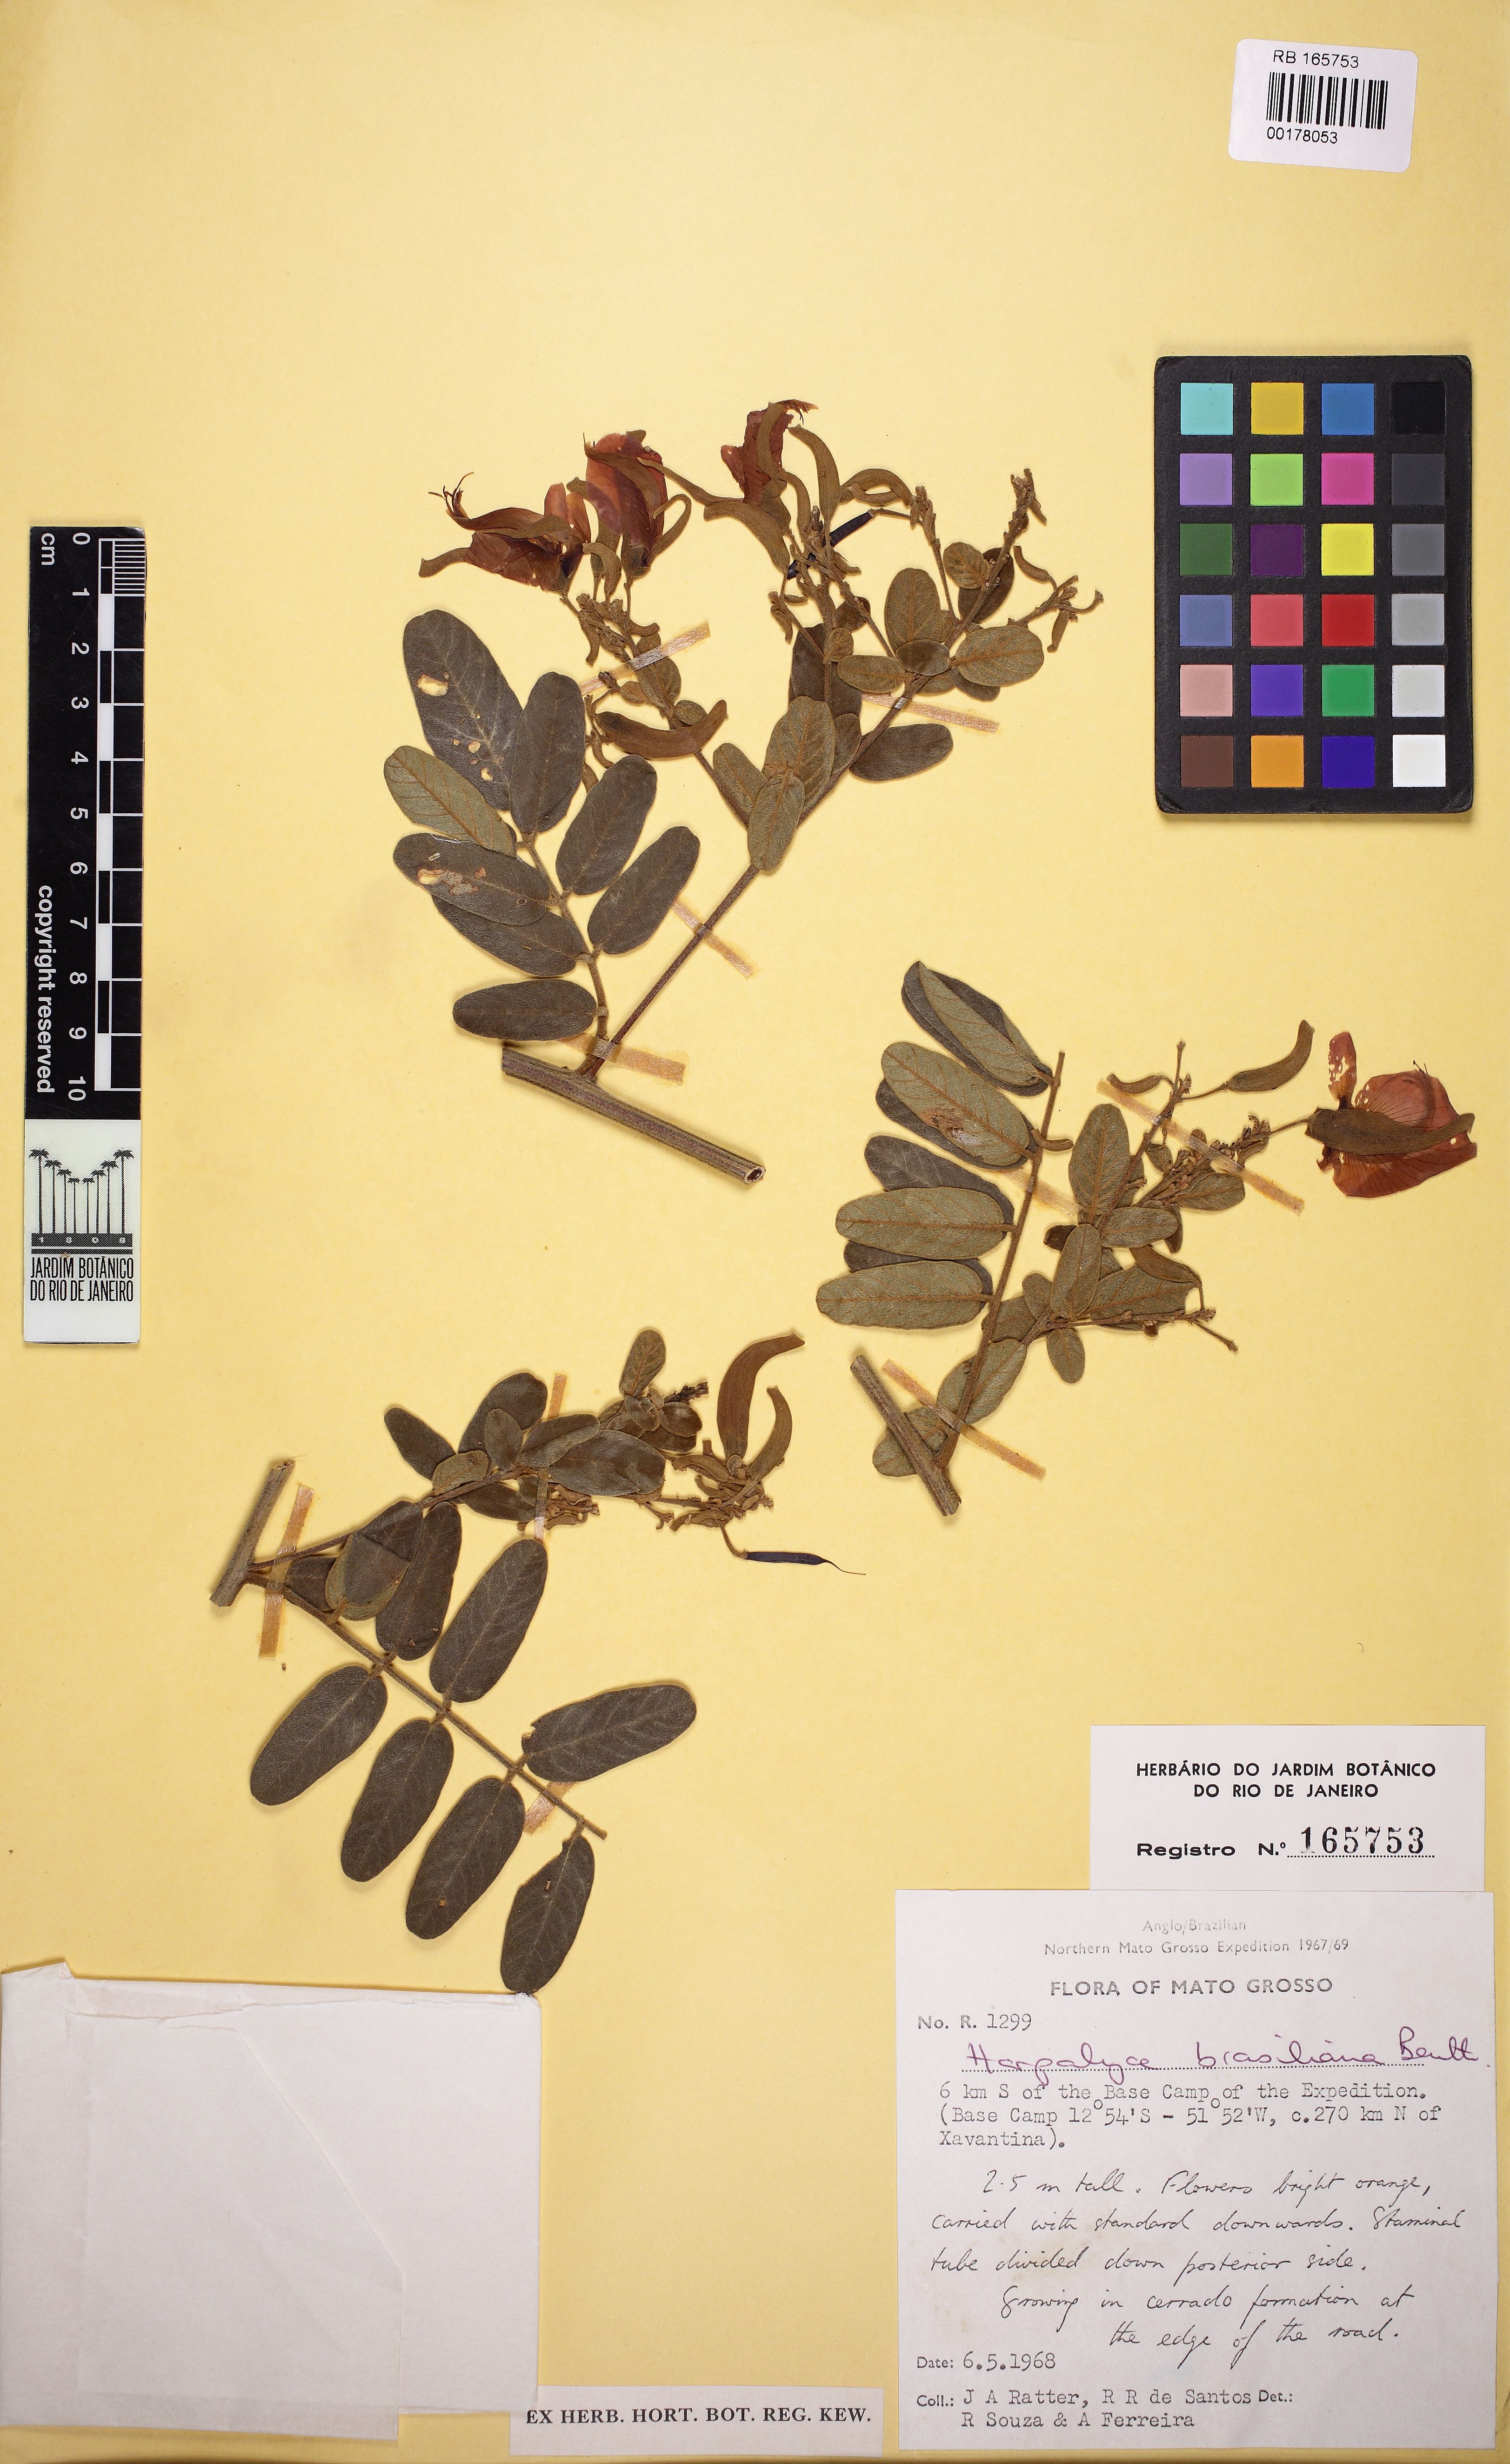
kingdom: Plantae
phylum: Tracheophyta
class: Magnoliopsida
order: Fabales
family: Fabaceae
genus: Harpalyce
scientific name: Harpalyce brasiliana
